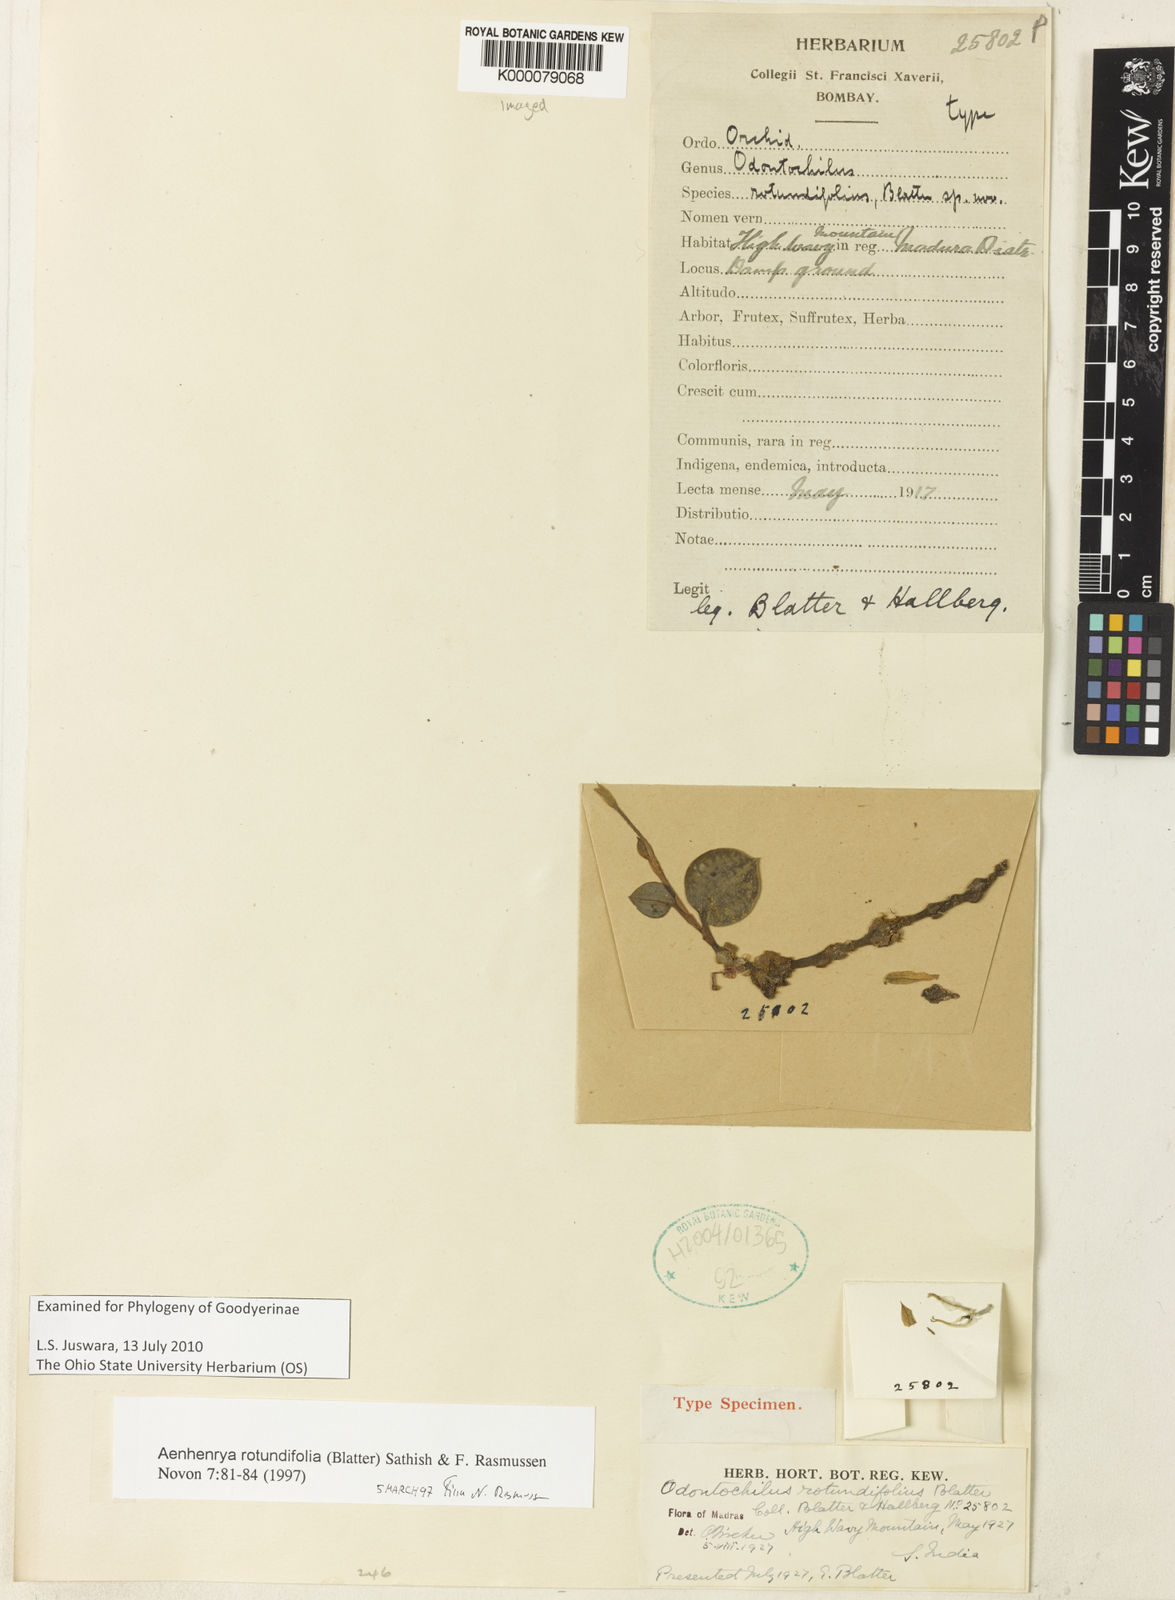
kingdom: Plantae
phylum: Tracheophyta
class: Liliopsida
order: Asparagales
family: Orchidaceae
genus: Aenhenrya
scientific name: Aenhenrya rotundifolia
